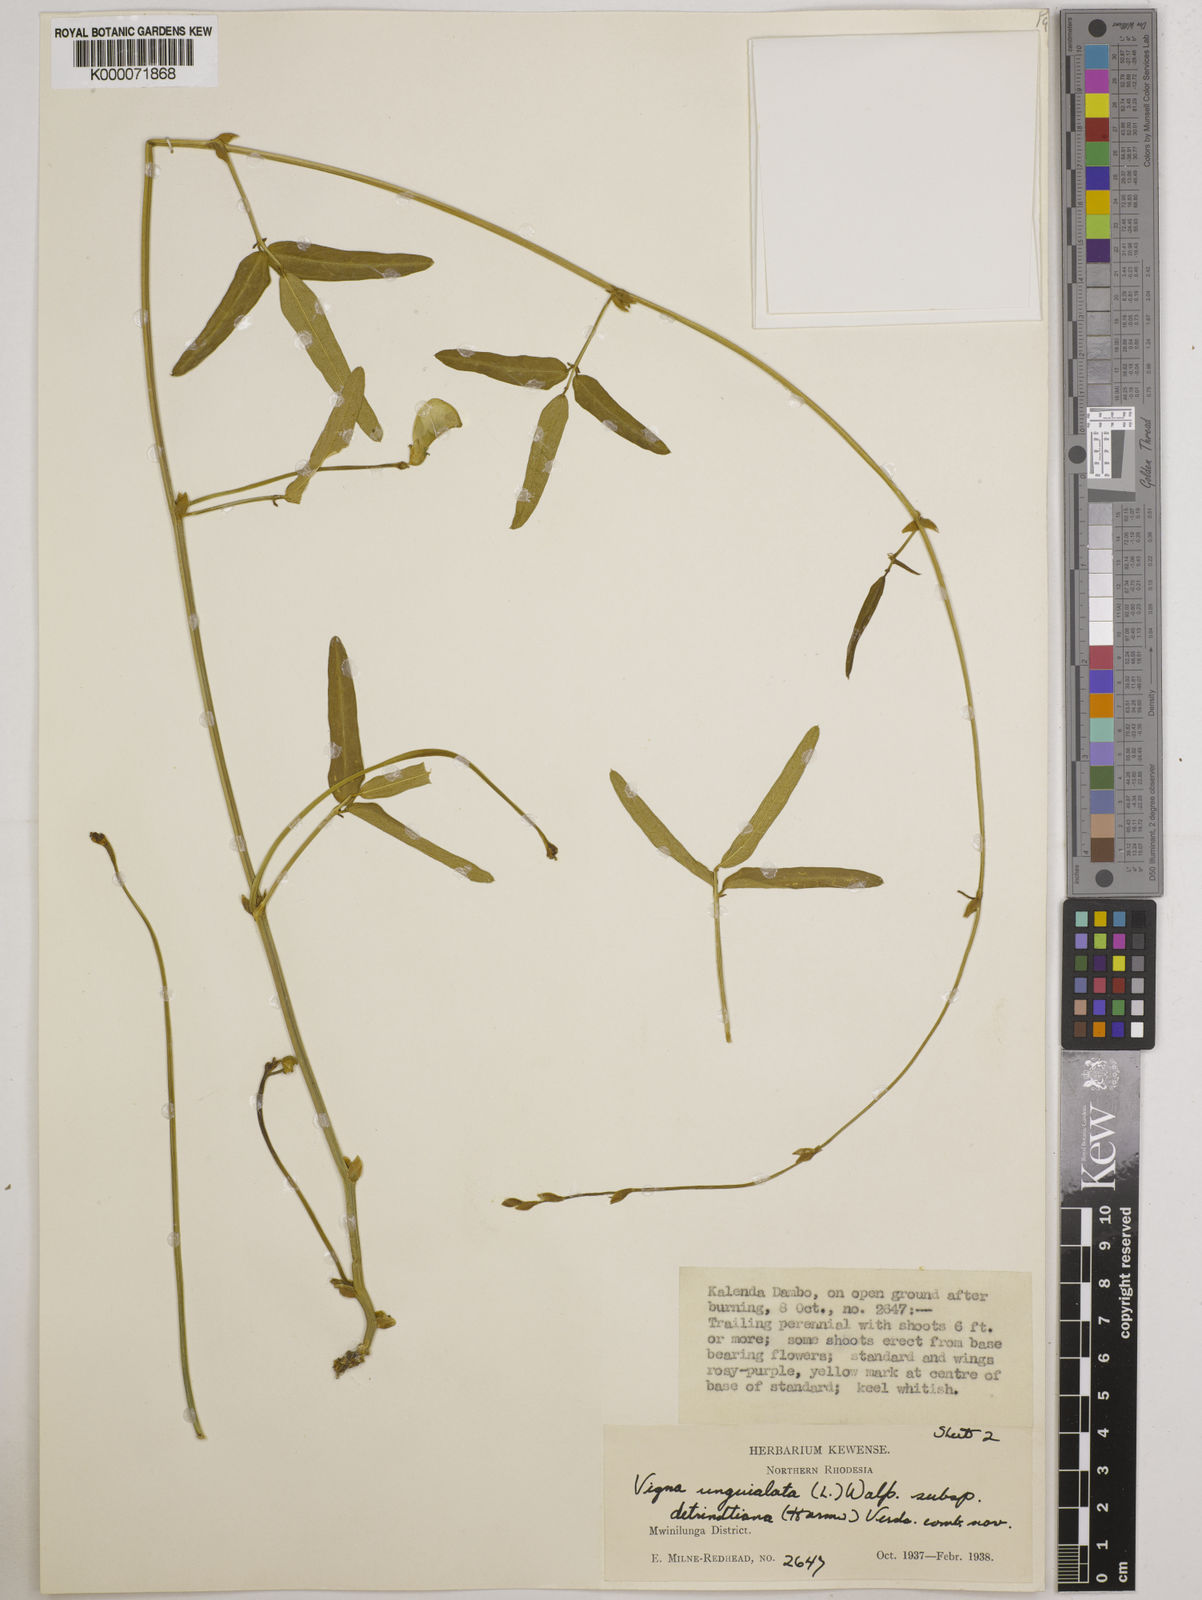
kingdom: Plantae
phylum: Tracheophyta
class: Magnoliopsida
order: Fabales
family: Fabaceae
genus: Vigna
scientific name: Vigna unguiculata
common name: Cowpea
